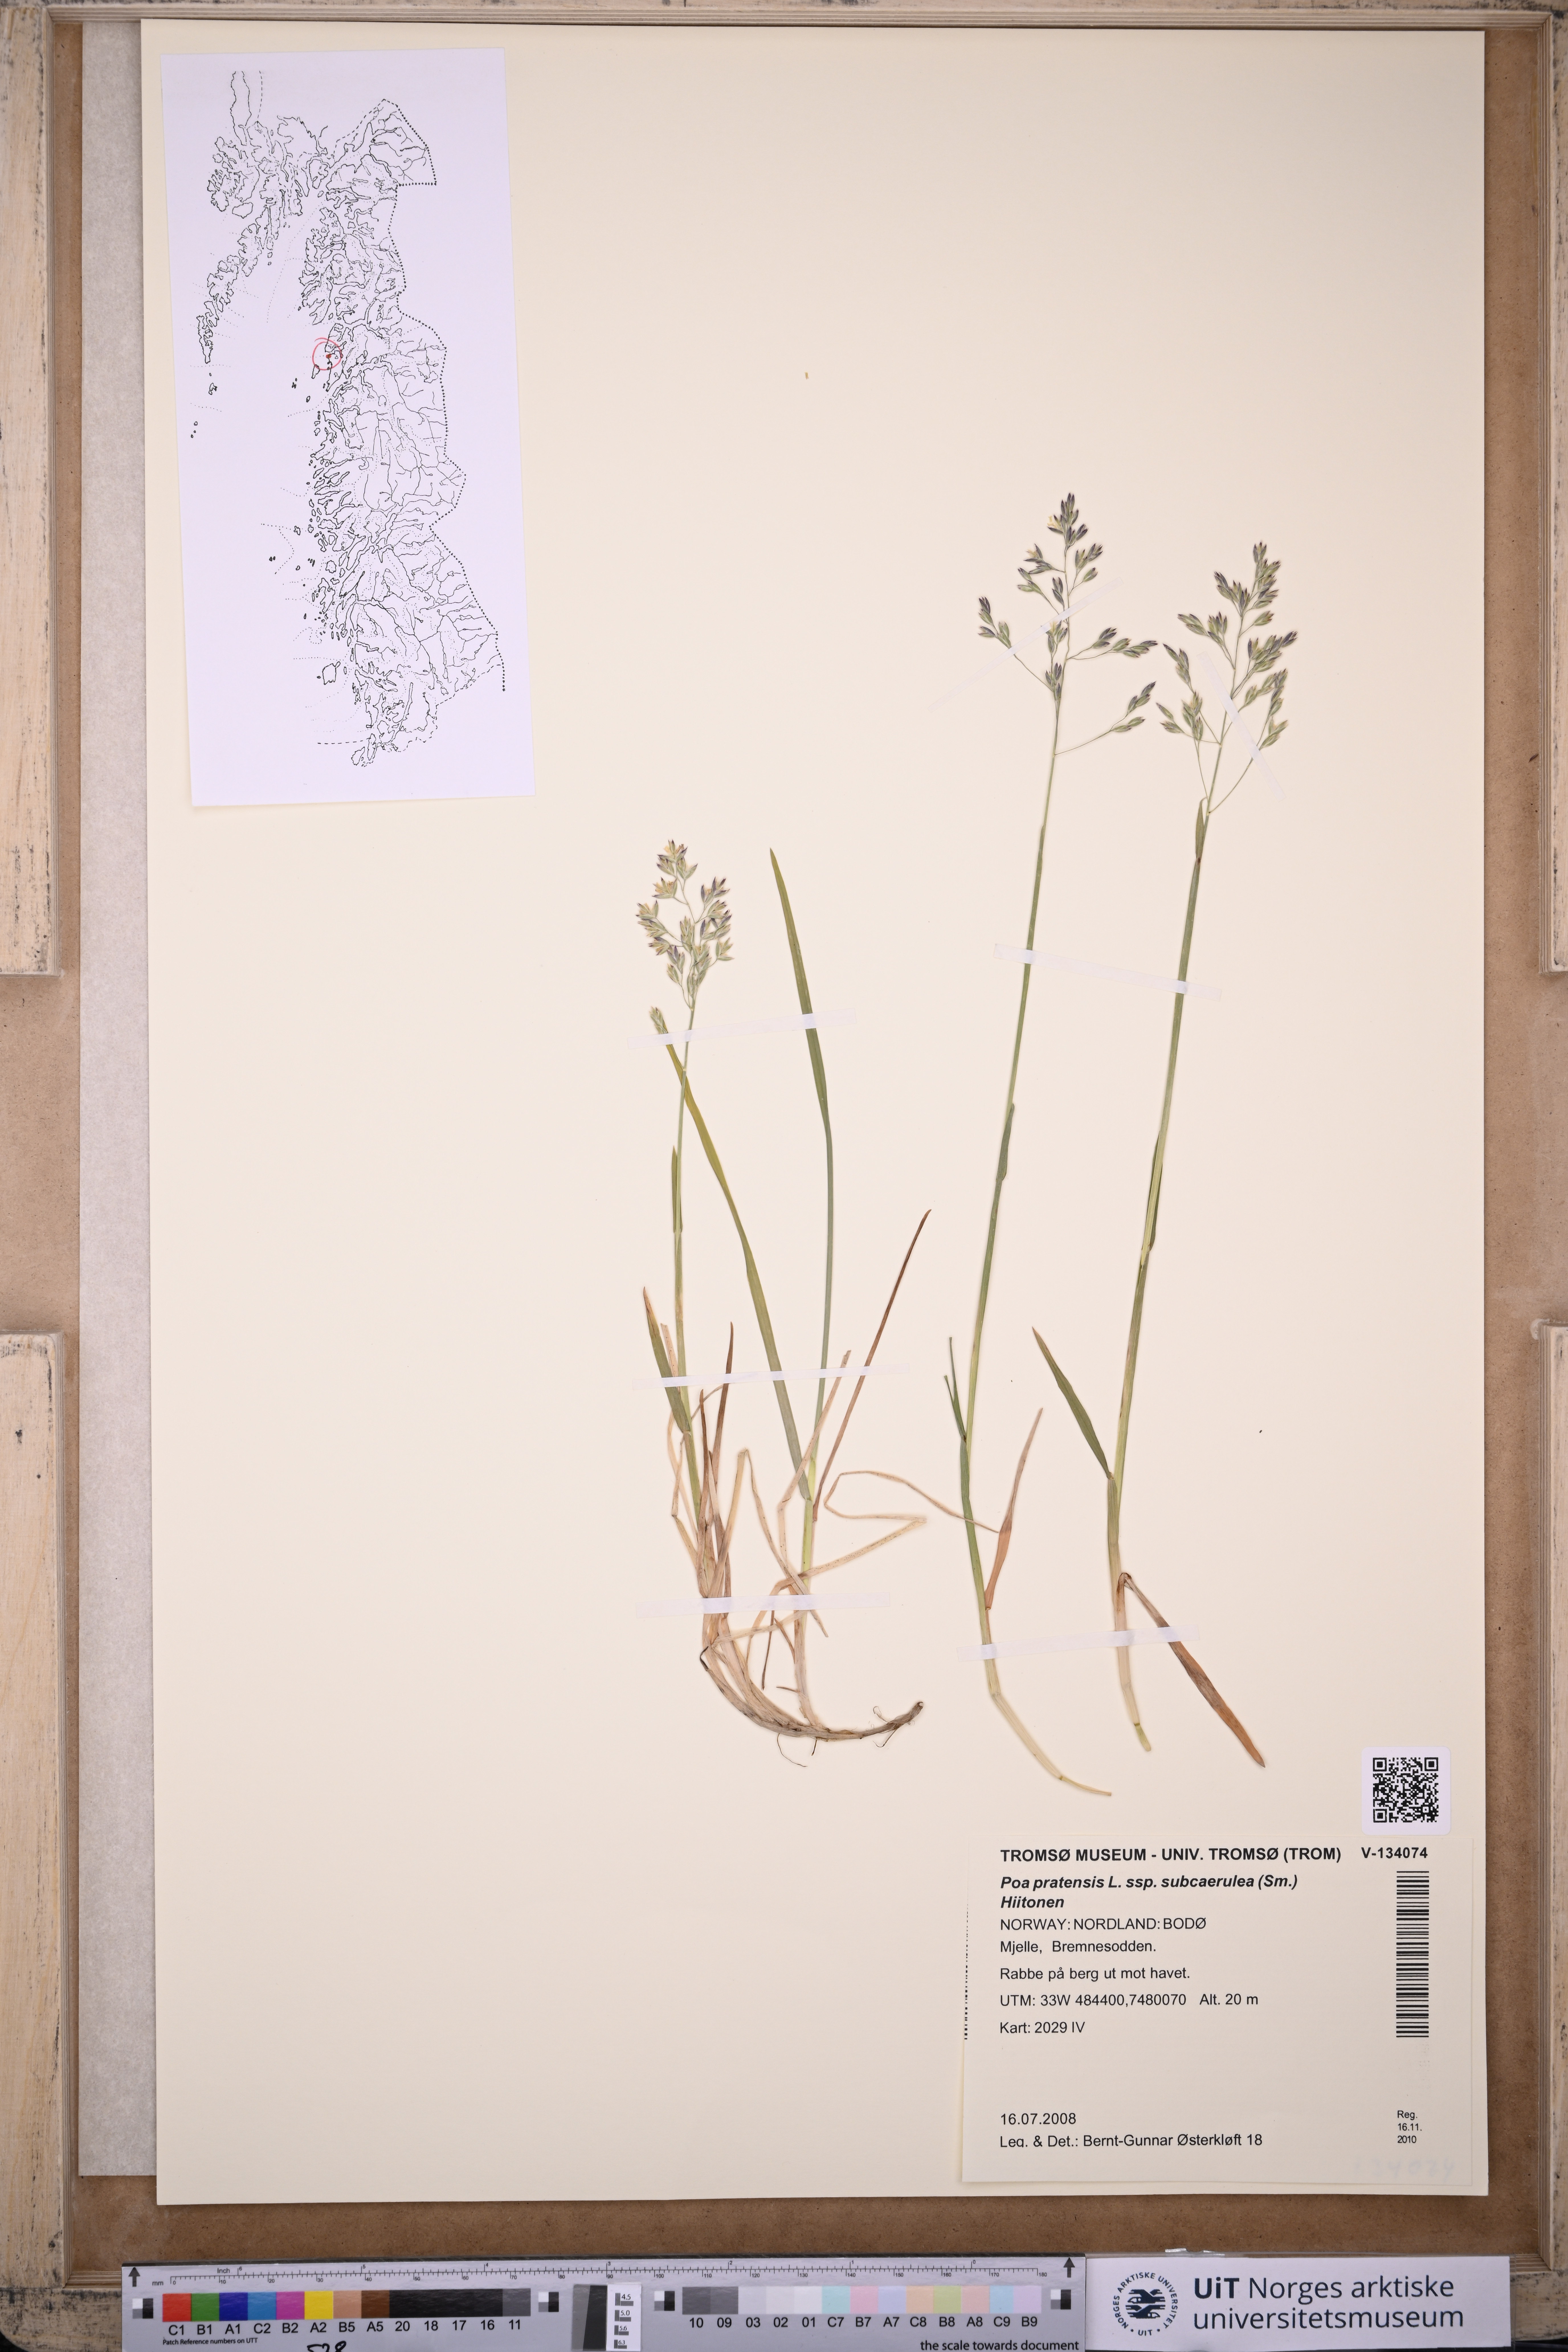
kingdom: Plantae
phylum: Tracheophyta
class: Liliopsida
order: Poales
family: Poaceae
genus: Poa
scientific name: Poa humilis
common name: Spreading meadow-grass
